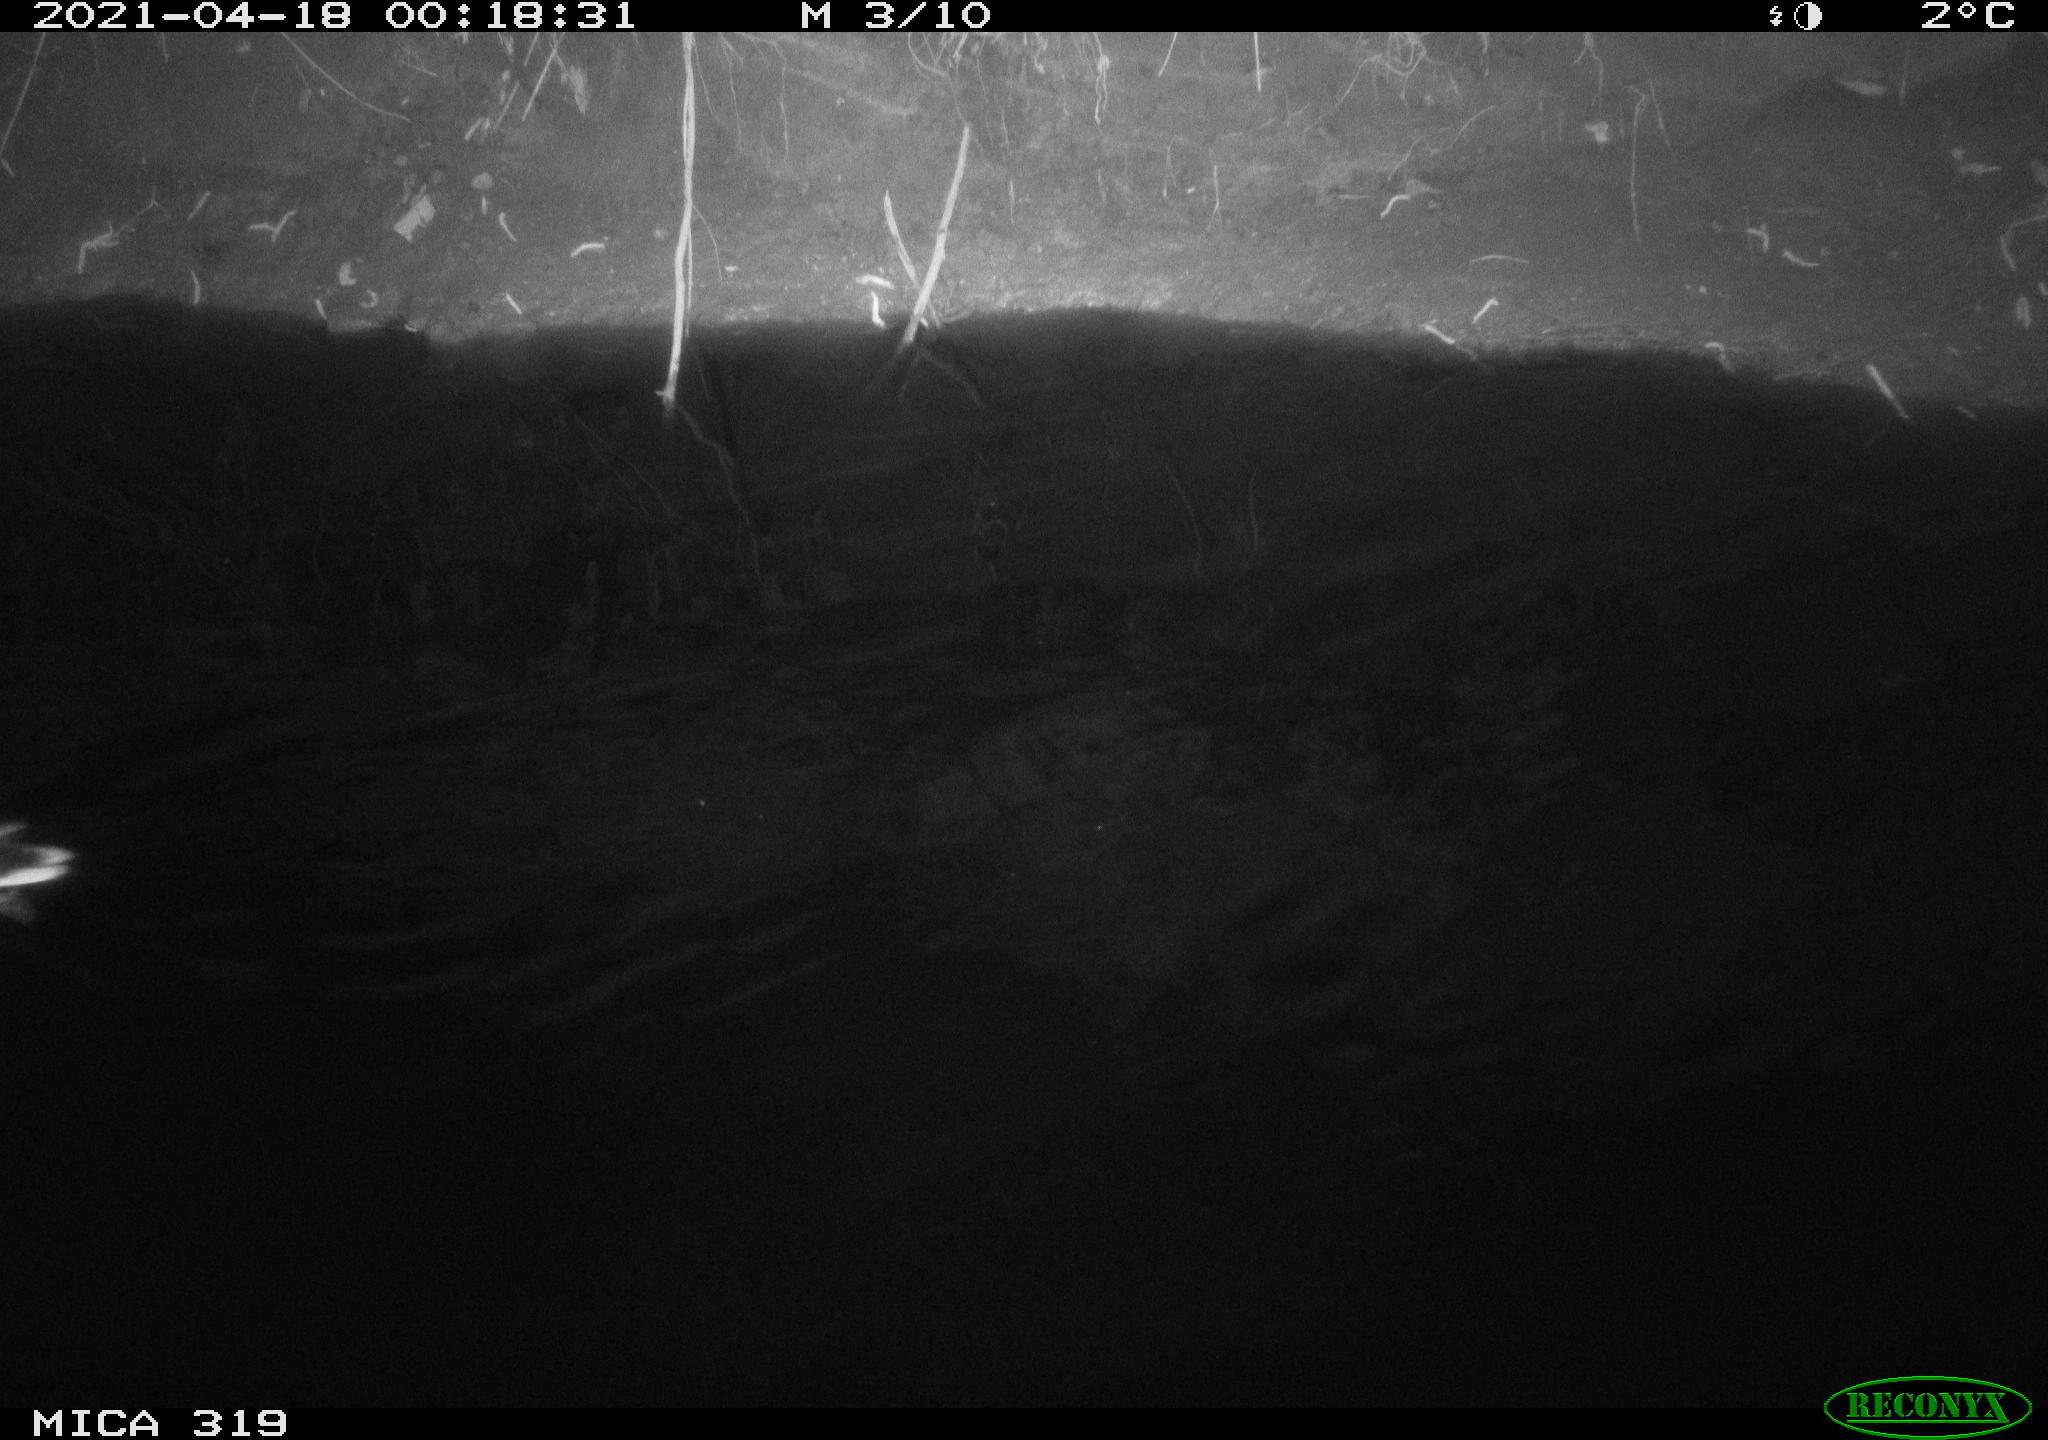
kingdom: Animalia
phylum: Chordata
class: Aves
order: Anseriformes
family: Anatidae
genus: Anas
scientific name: Anas platyrhynchos
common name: Mallard
